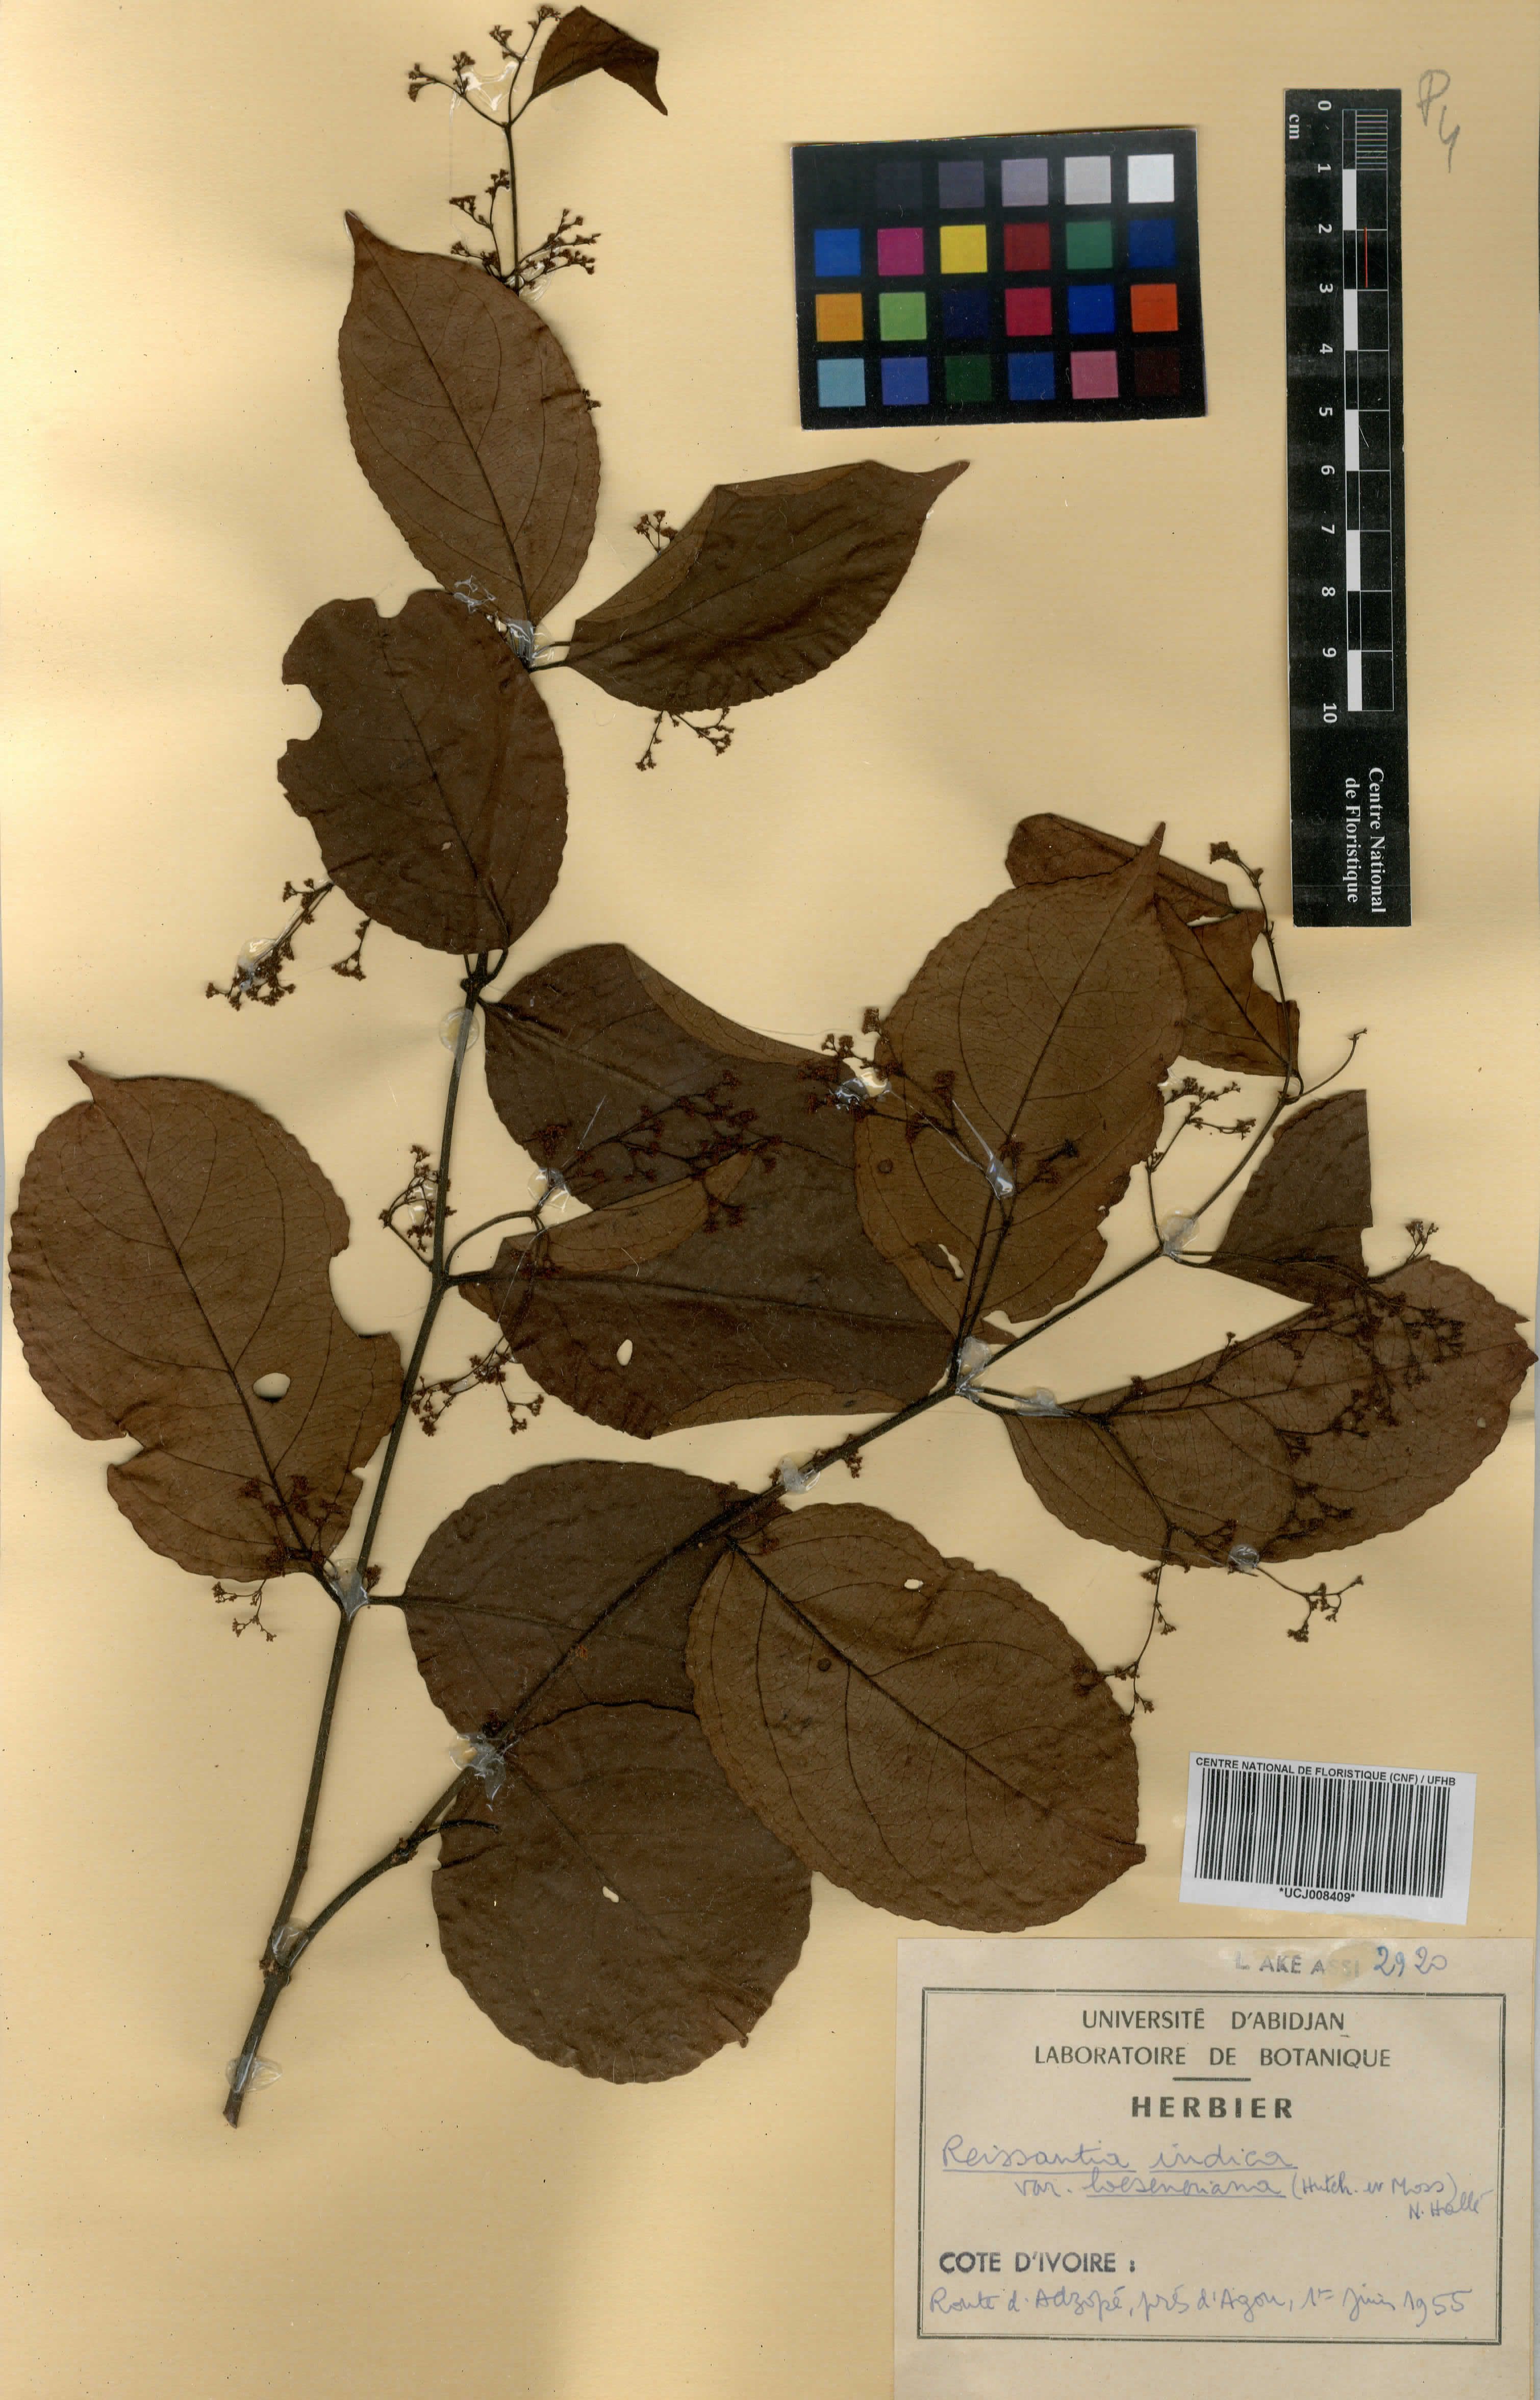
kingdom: Plantae
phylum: Tracheophyta
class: Magnoliopsida
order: Celastrales
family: Celastraceae
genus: Reissantia
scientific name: Reissantia indica
